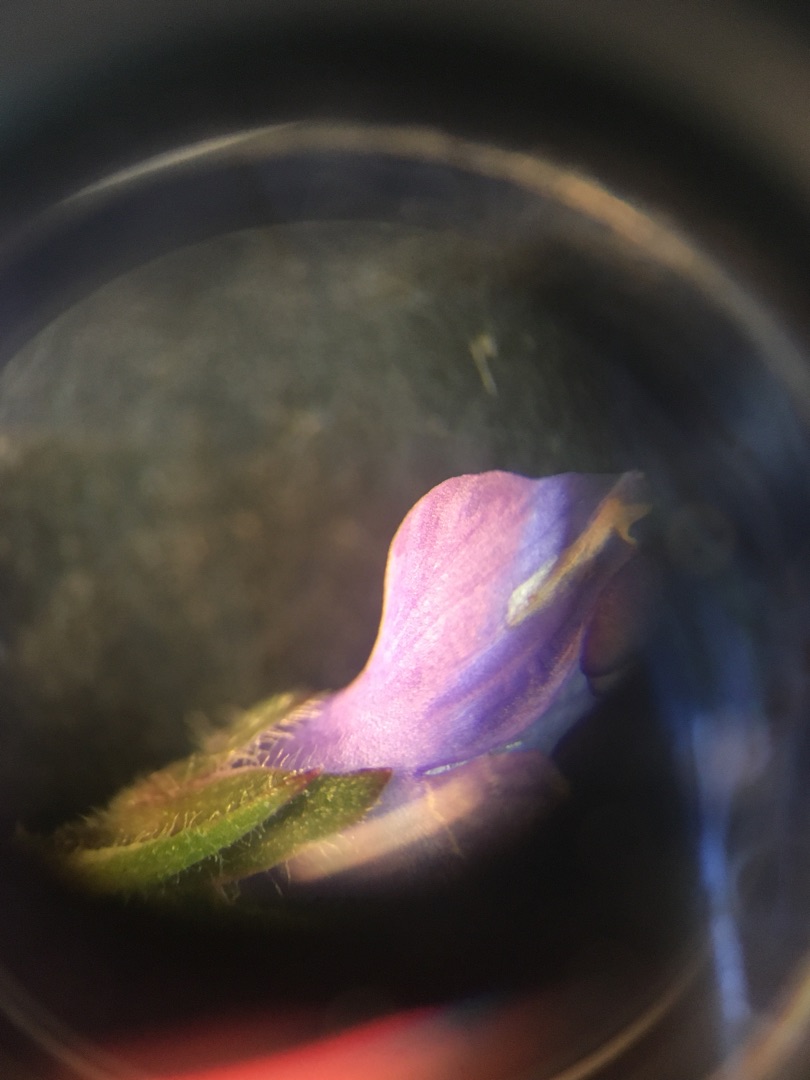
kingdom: Plantae
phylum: Tracheophyta
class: Magnoliopsida
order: Lamiales
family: Plantaginaceae
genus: Veronica
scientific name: Veronica longifolia
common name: Langbladet ærenpris
